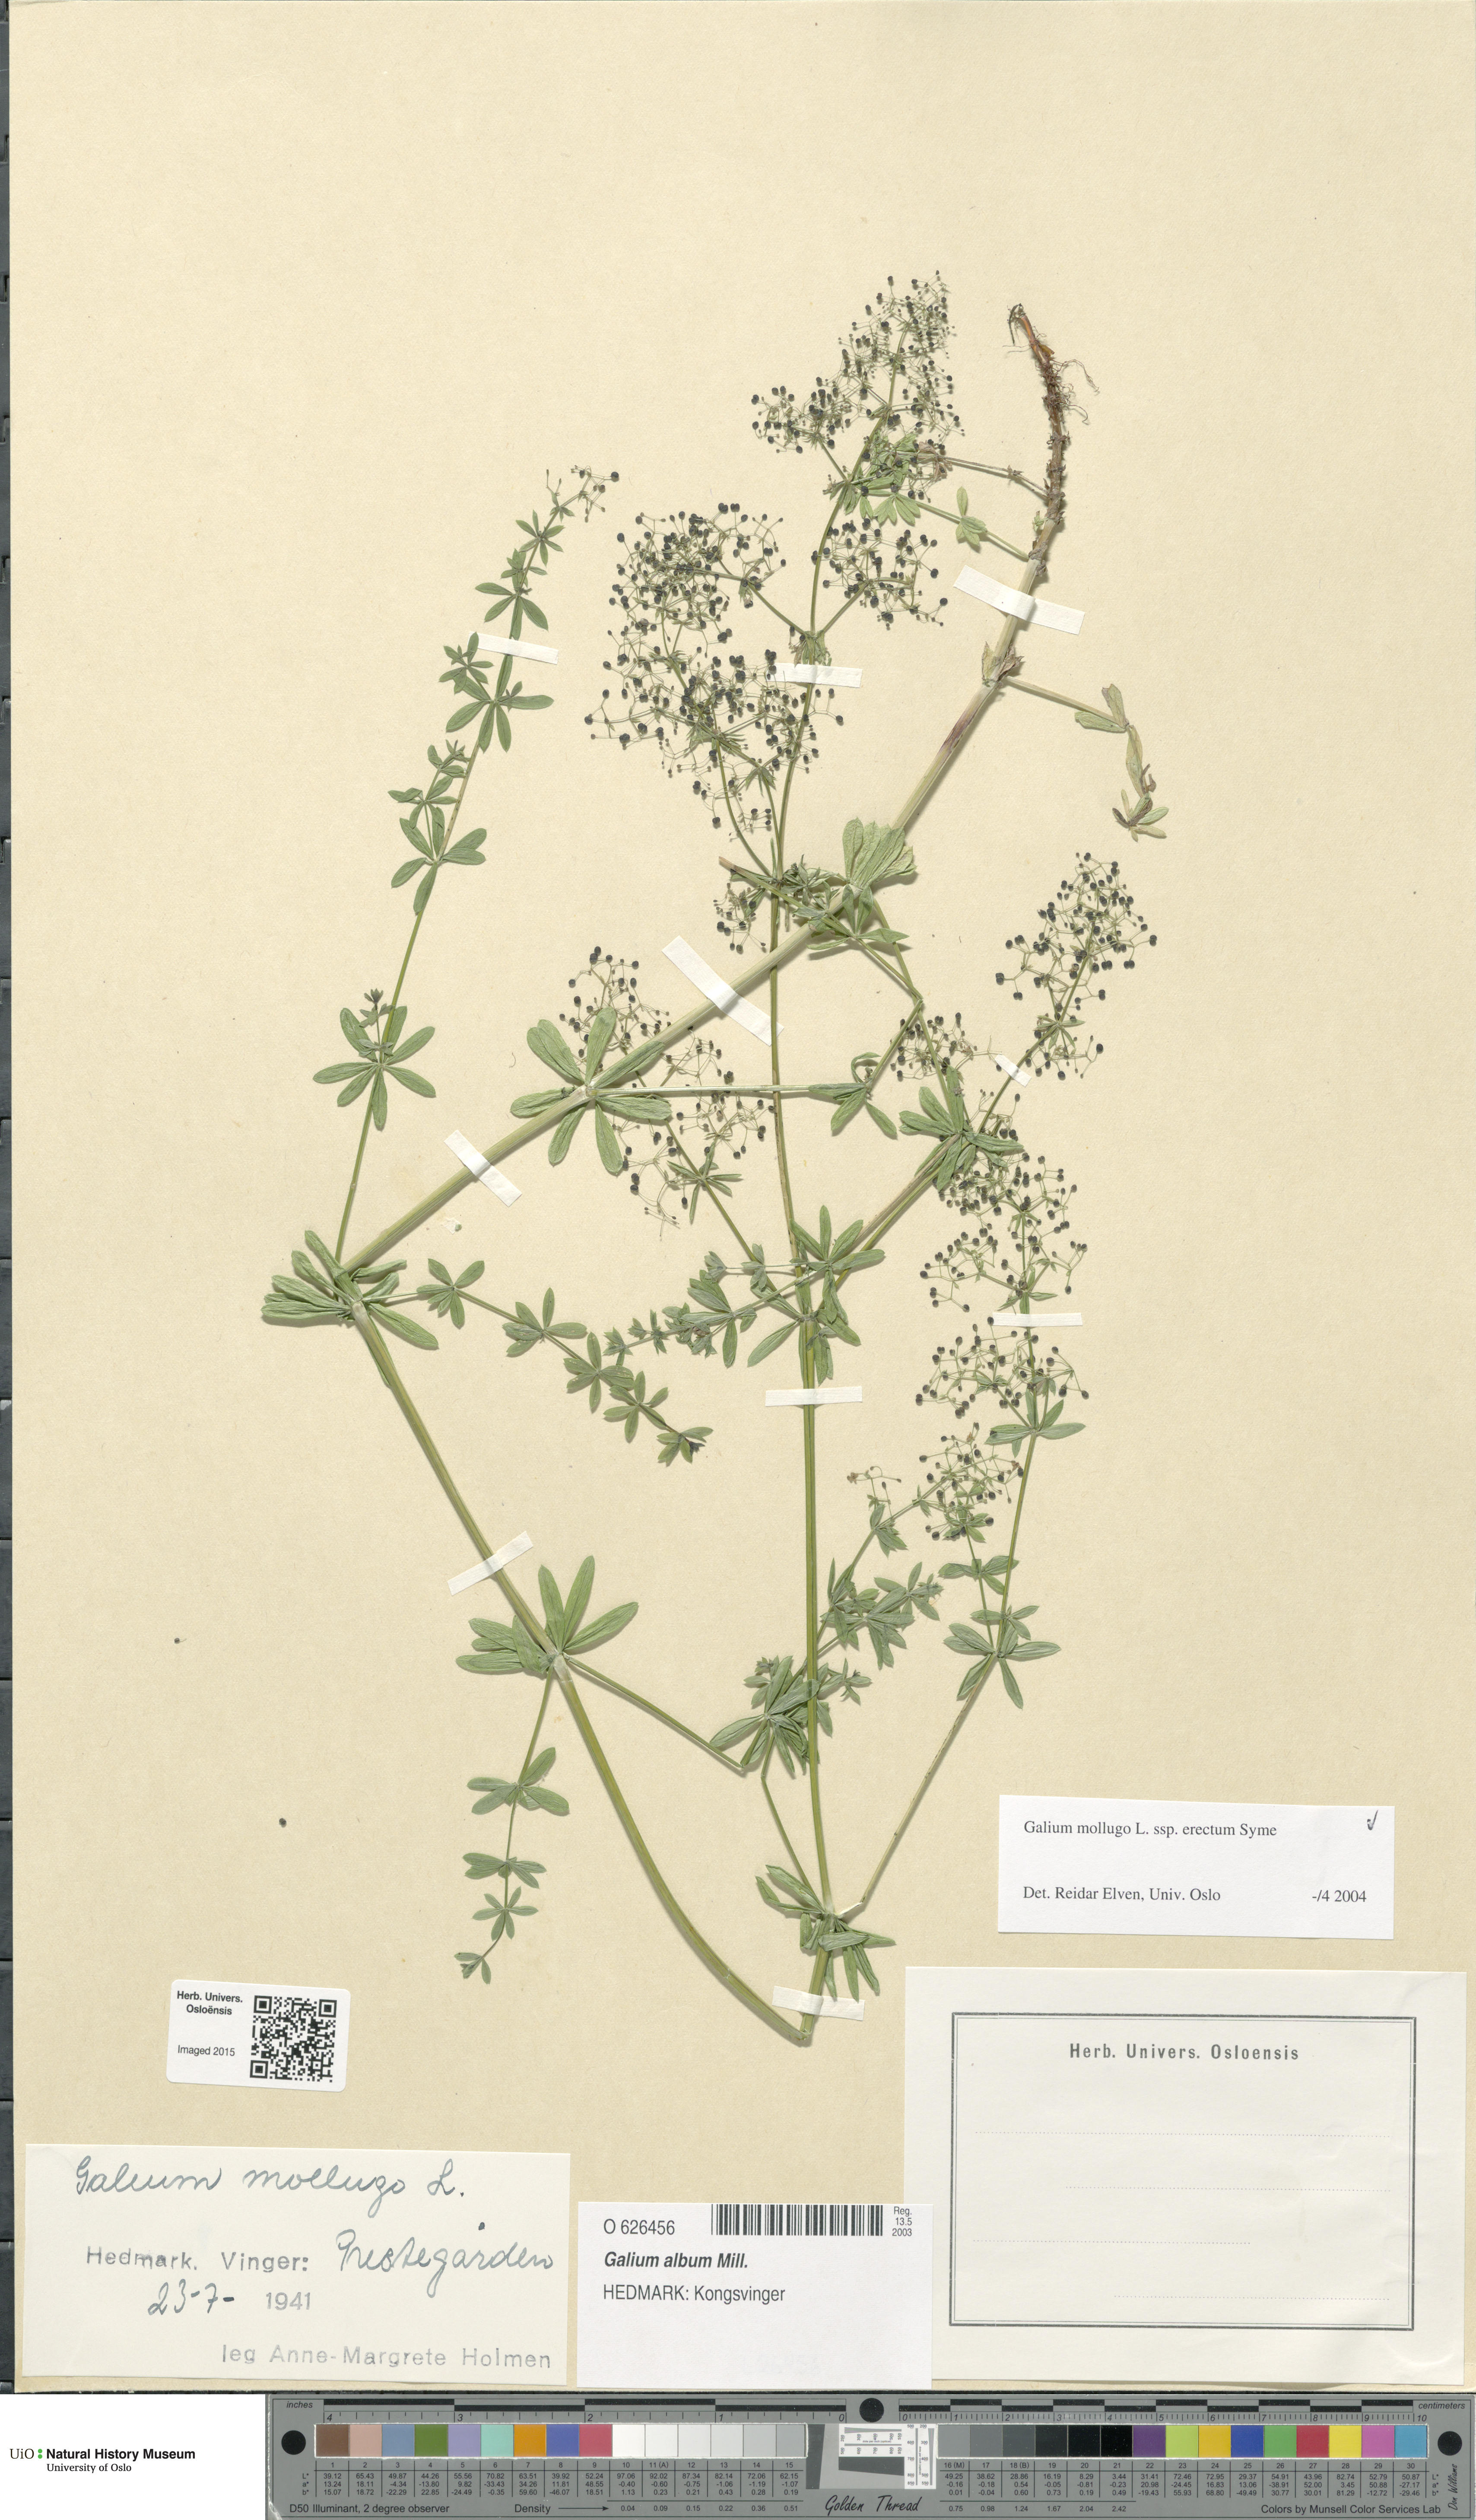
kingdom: Plantae
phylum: Tracheophyta
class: Magnoliopsida
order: Gentianales
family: Rubiaceae
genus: Galium
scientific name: Galium album
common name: White bedstraw
